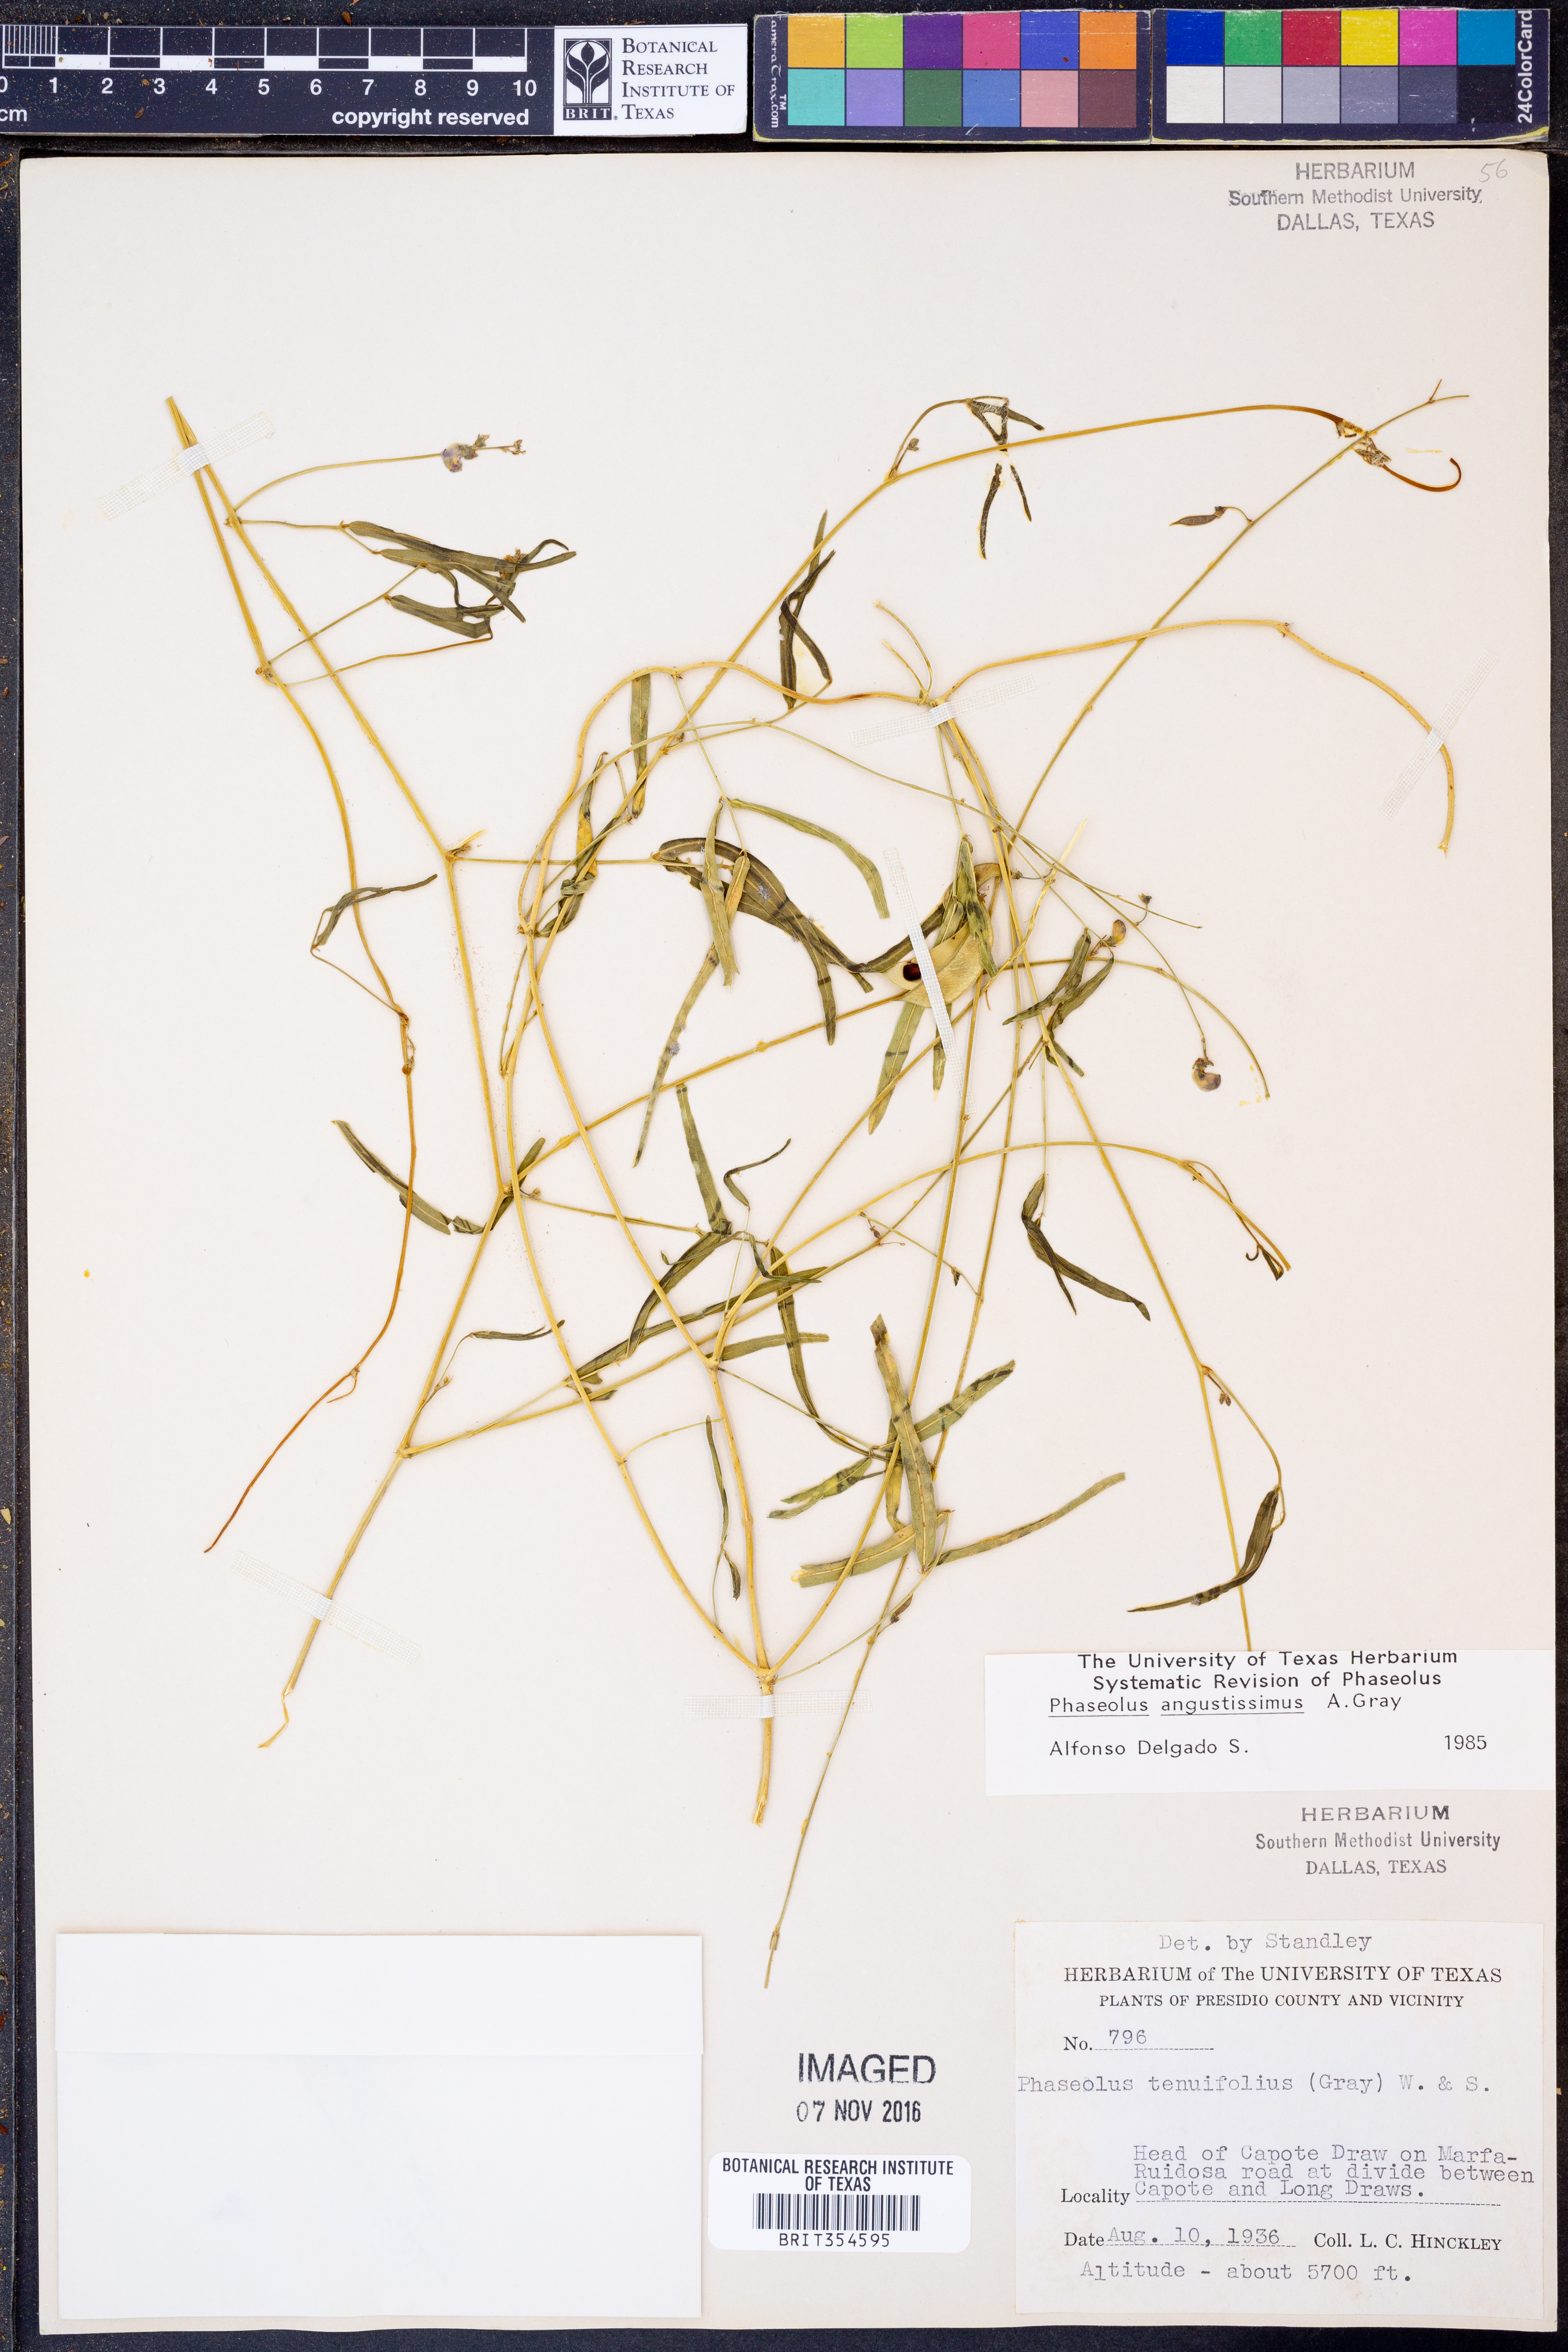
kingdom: Plantae
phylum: Tracheophyta
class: Magnoliopsida
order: Fabales
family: Fabaceae
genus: Phaseolus
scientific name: Phaseolus angustissimus
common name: Slimleaf bean
